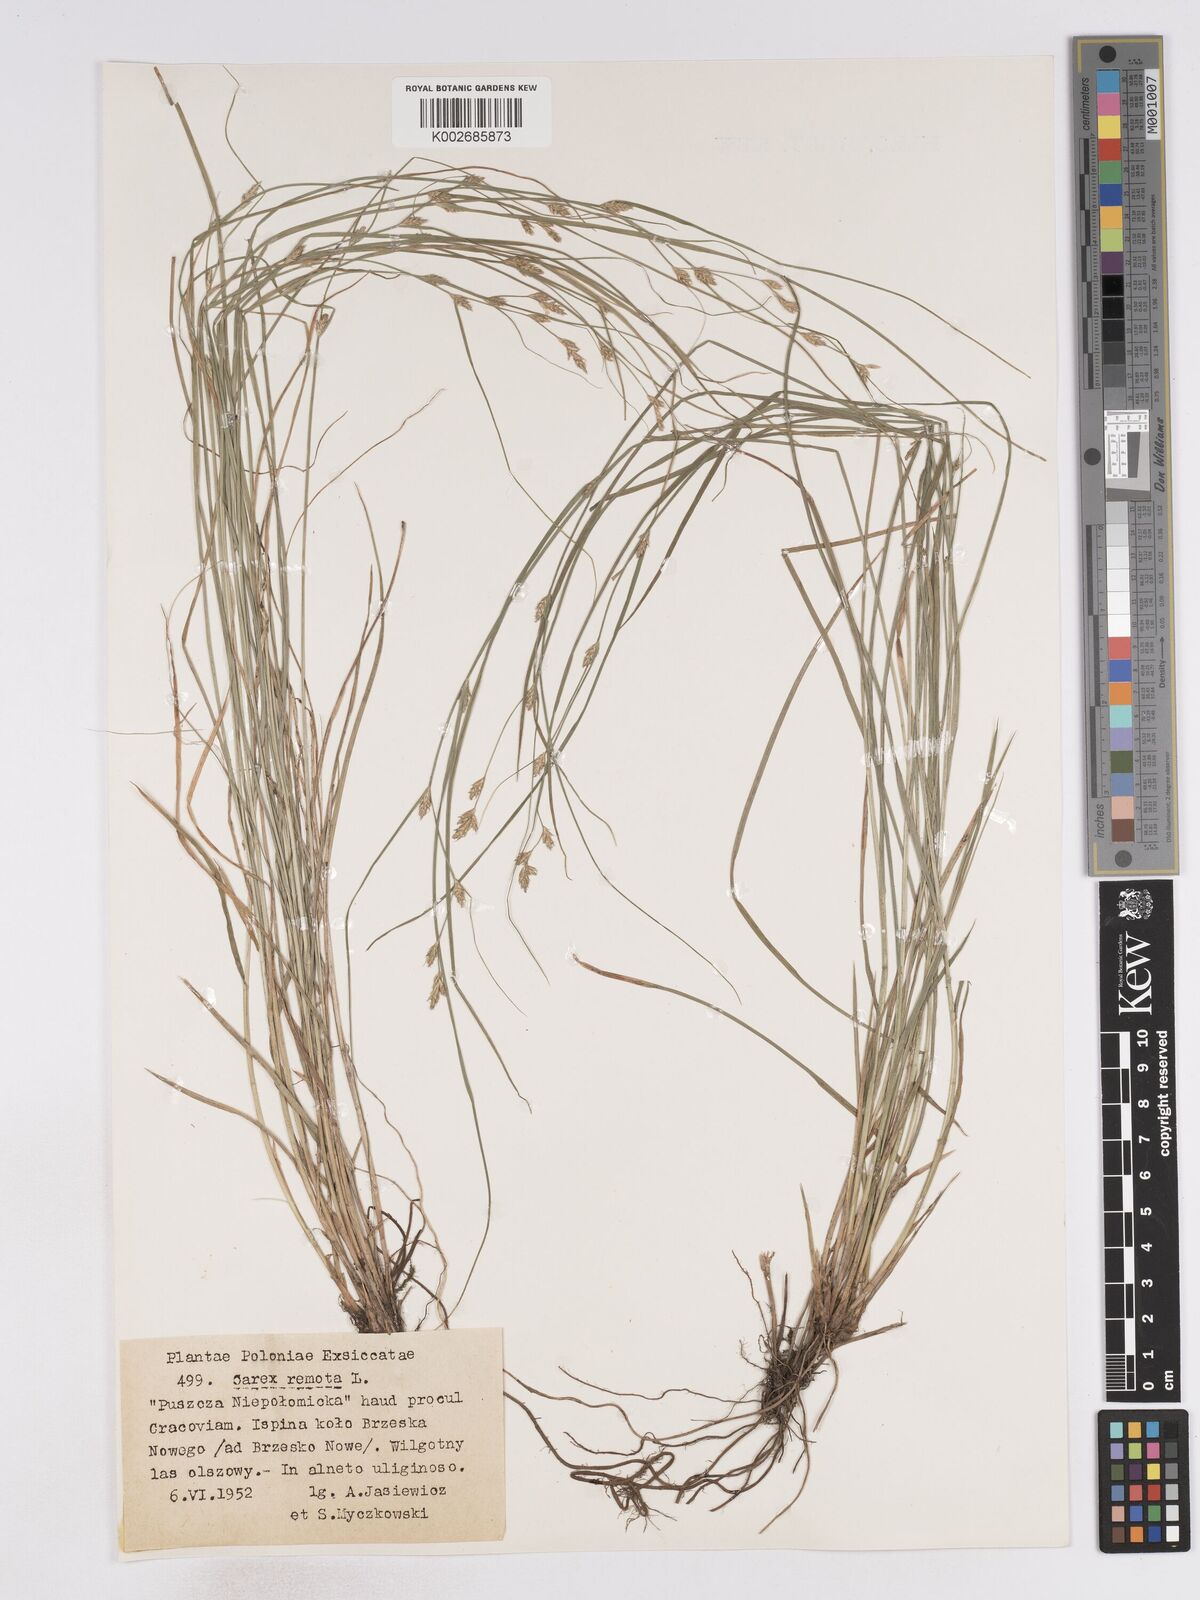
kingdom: Plantae
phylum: Tracheophyta
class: Liliopsida
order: Poales
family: Cyperaceae
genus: Carex
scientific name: Carex remota
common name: Remote sedge
